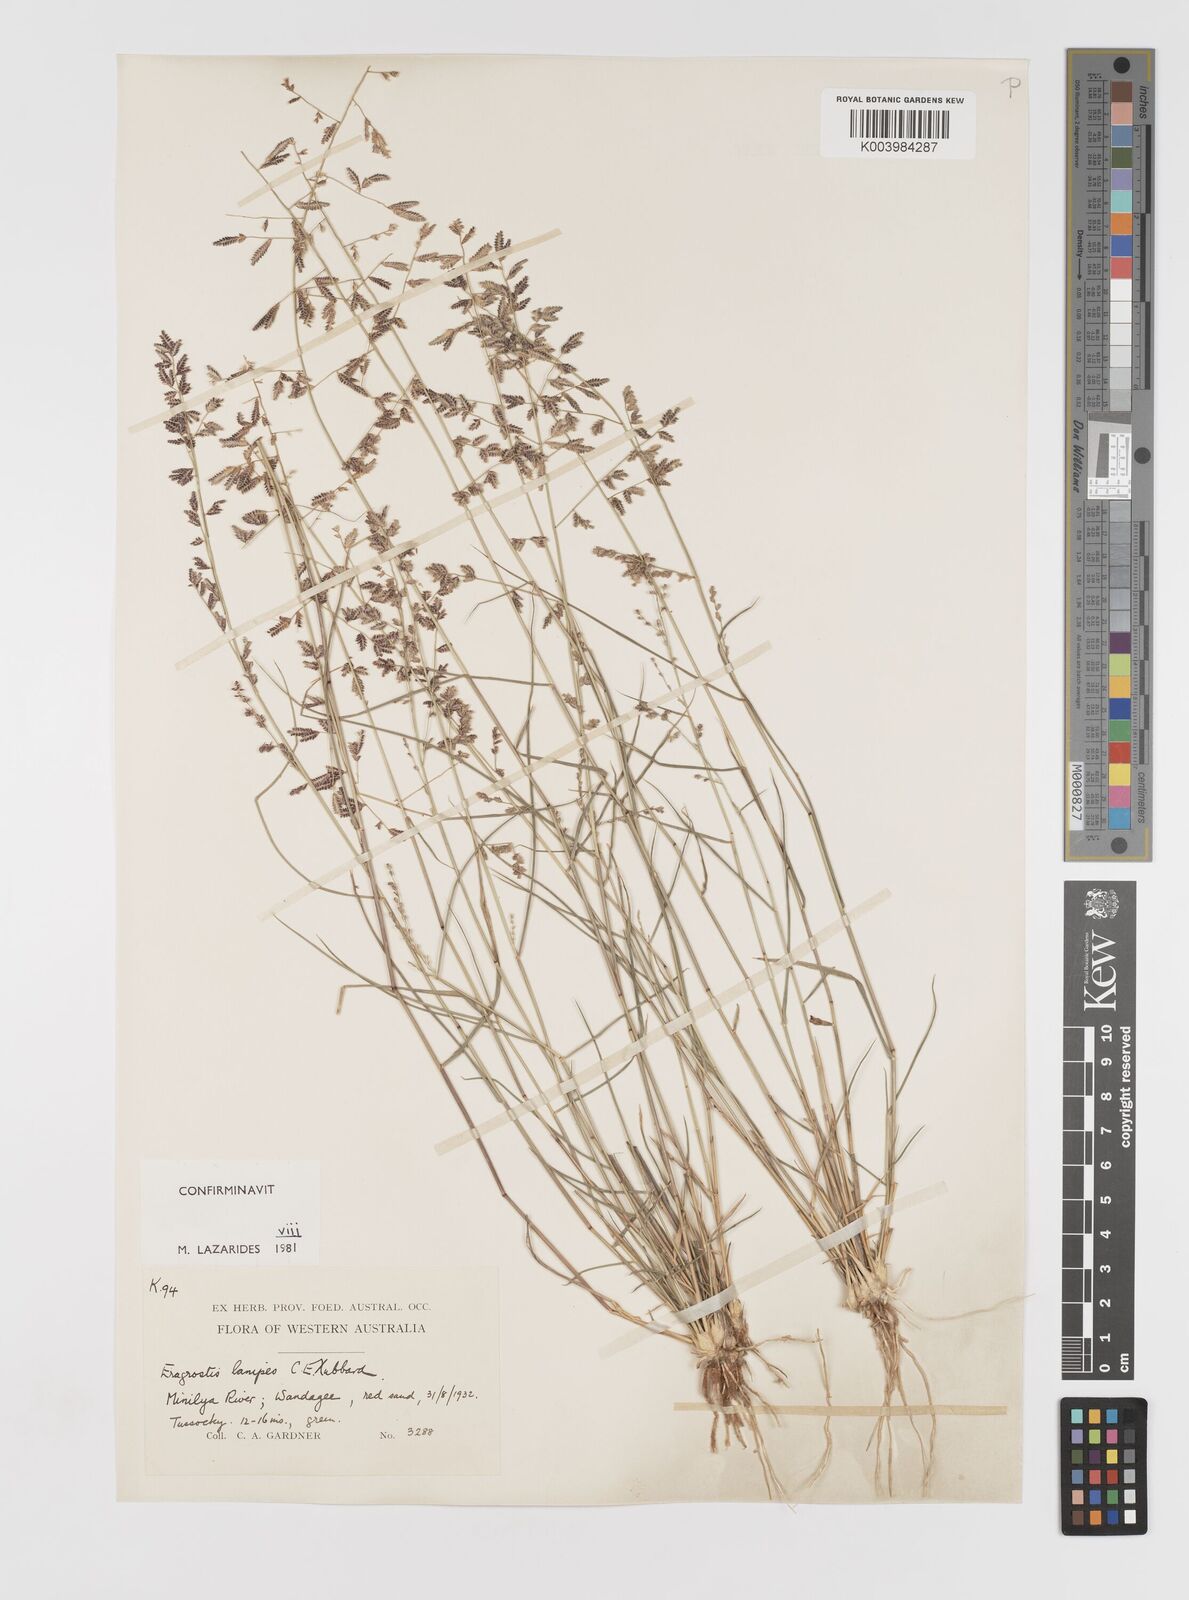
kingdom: Plantae
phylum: Tracheophyta
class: Liliopsida
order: Poales
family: Poaceae
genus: Eragrostis
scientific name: Eragrostis lanipes
